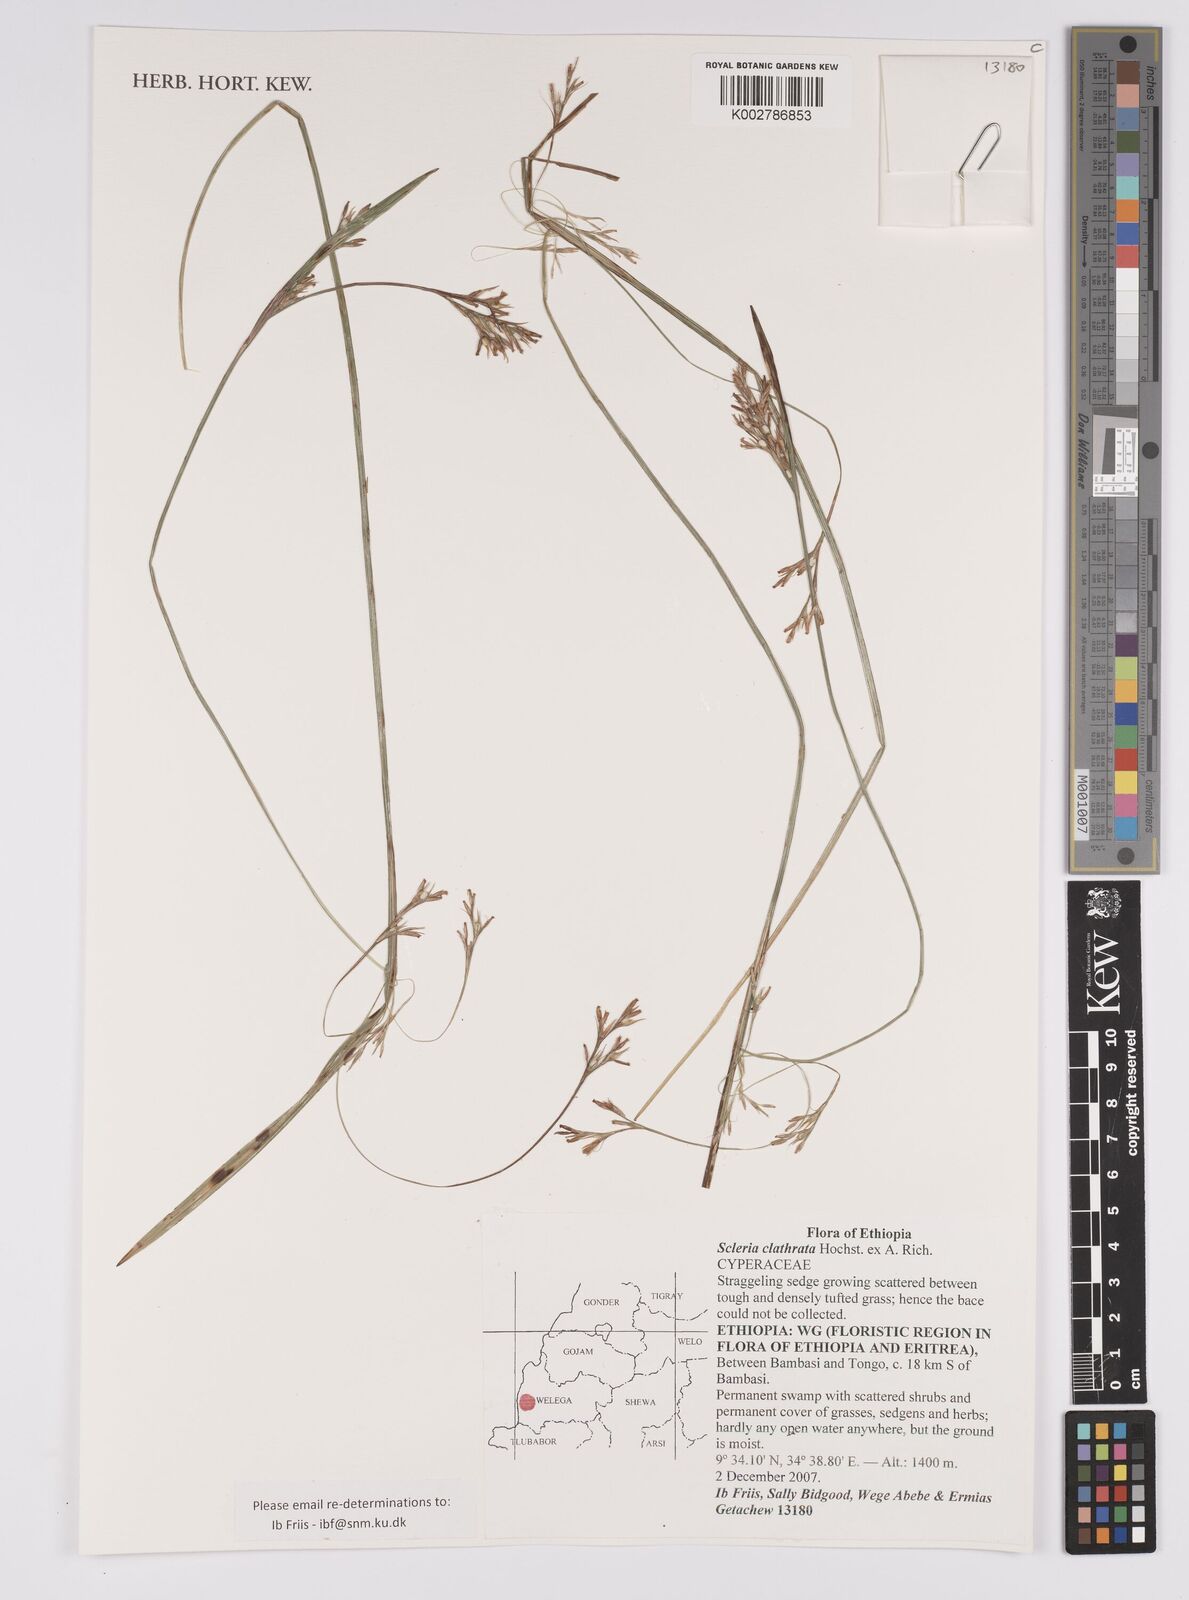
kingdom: Plantae
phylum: Tracheophyta
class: Liliopsida
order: Poales
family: Cyperaceae
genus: Scleria
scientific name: Scleria clathrata
